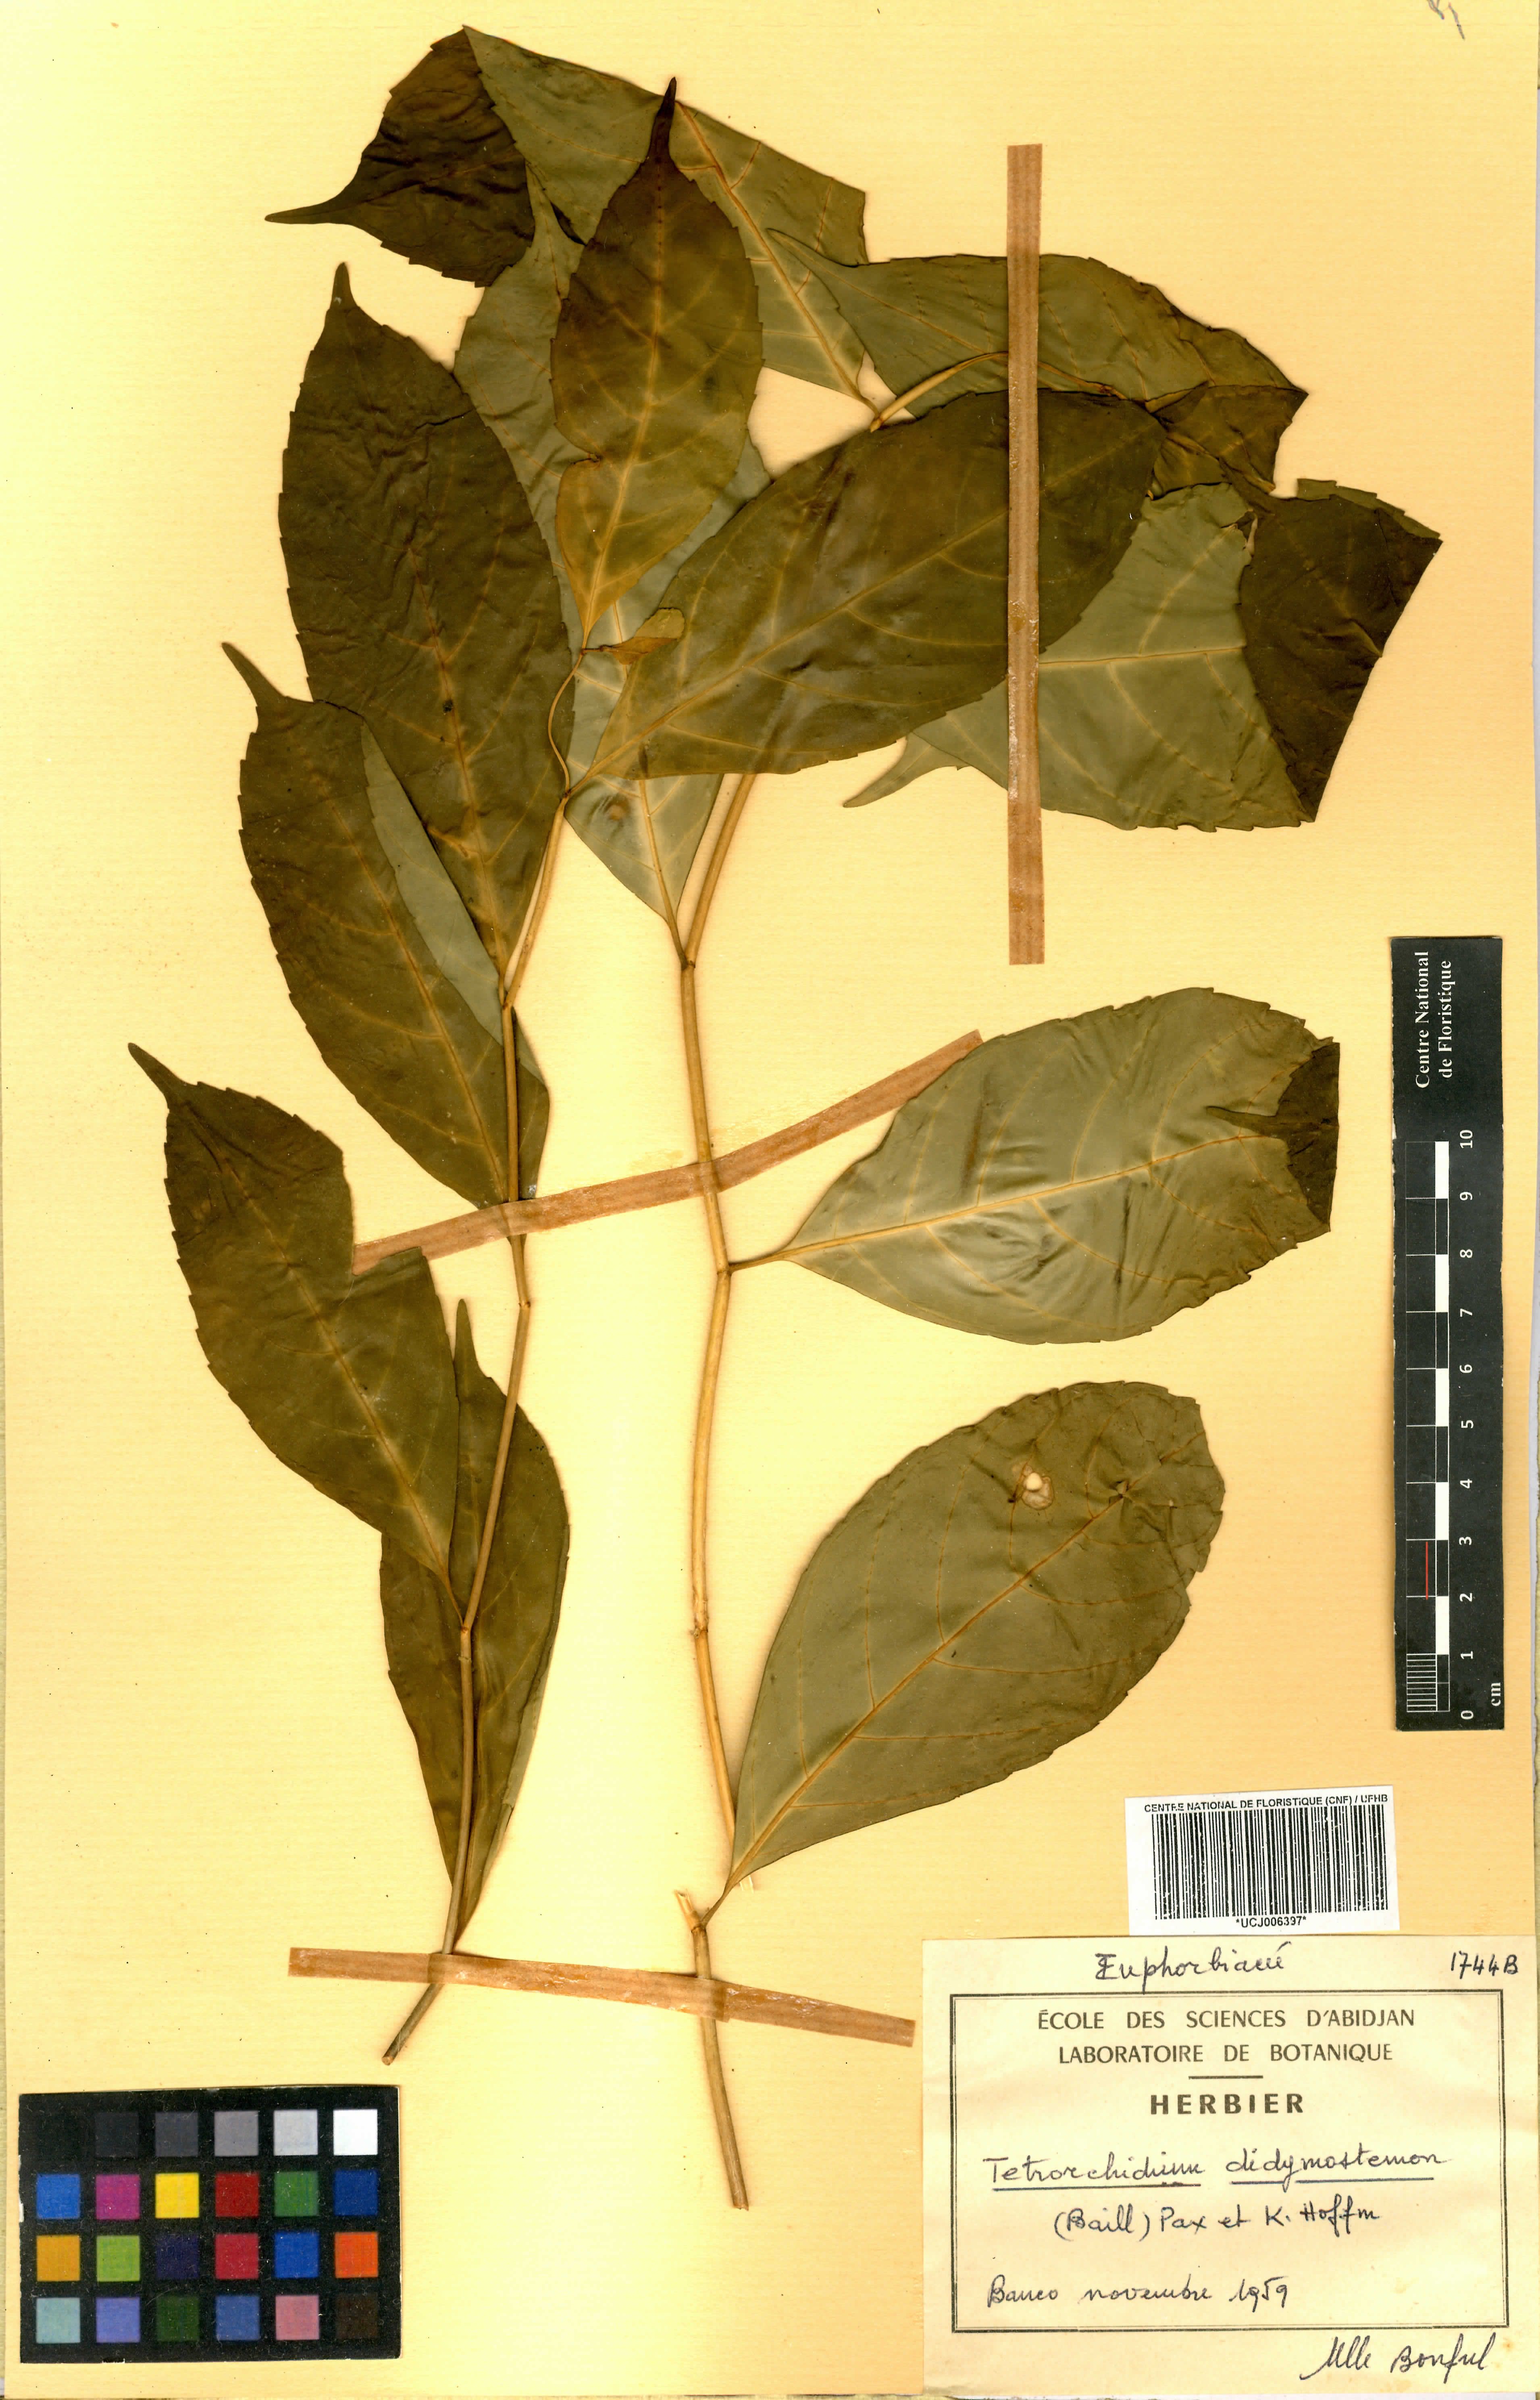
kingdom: Plantae
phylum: Tracheophyta
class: Magnoliopsida
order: Malpighiales
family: Euphorbiaceae
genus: Tetrorchidium
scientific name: Tetrorchidium didymostemon
